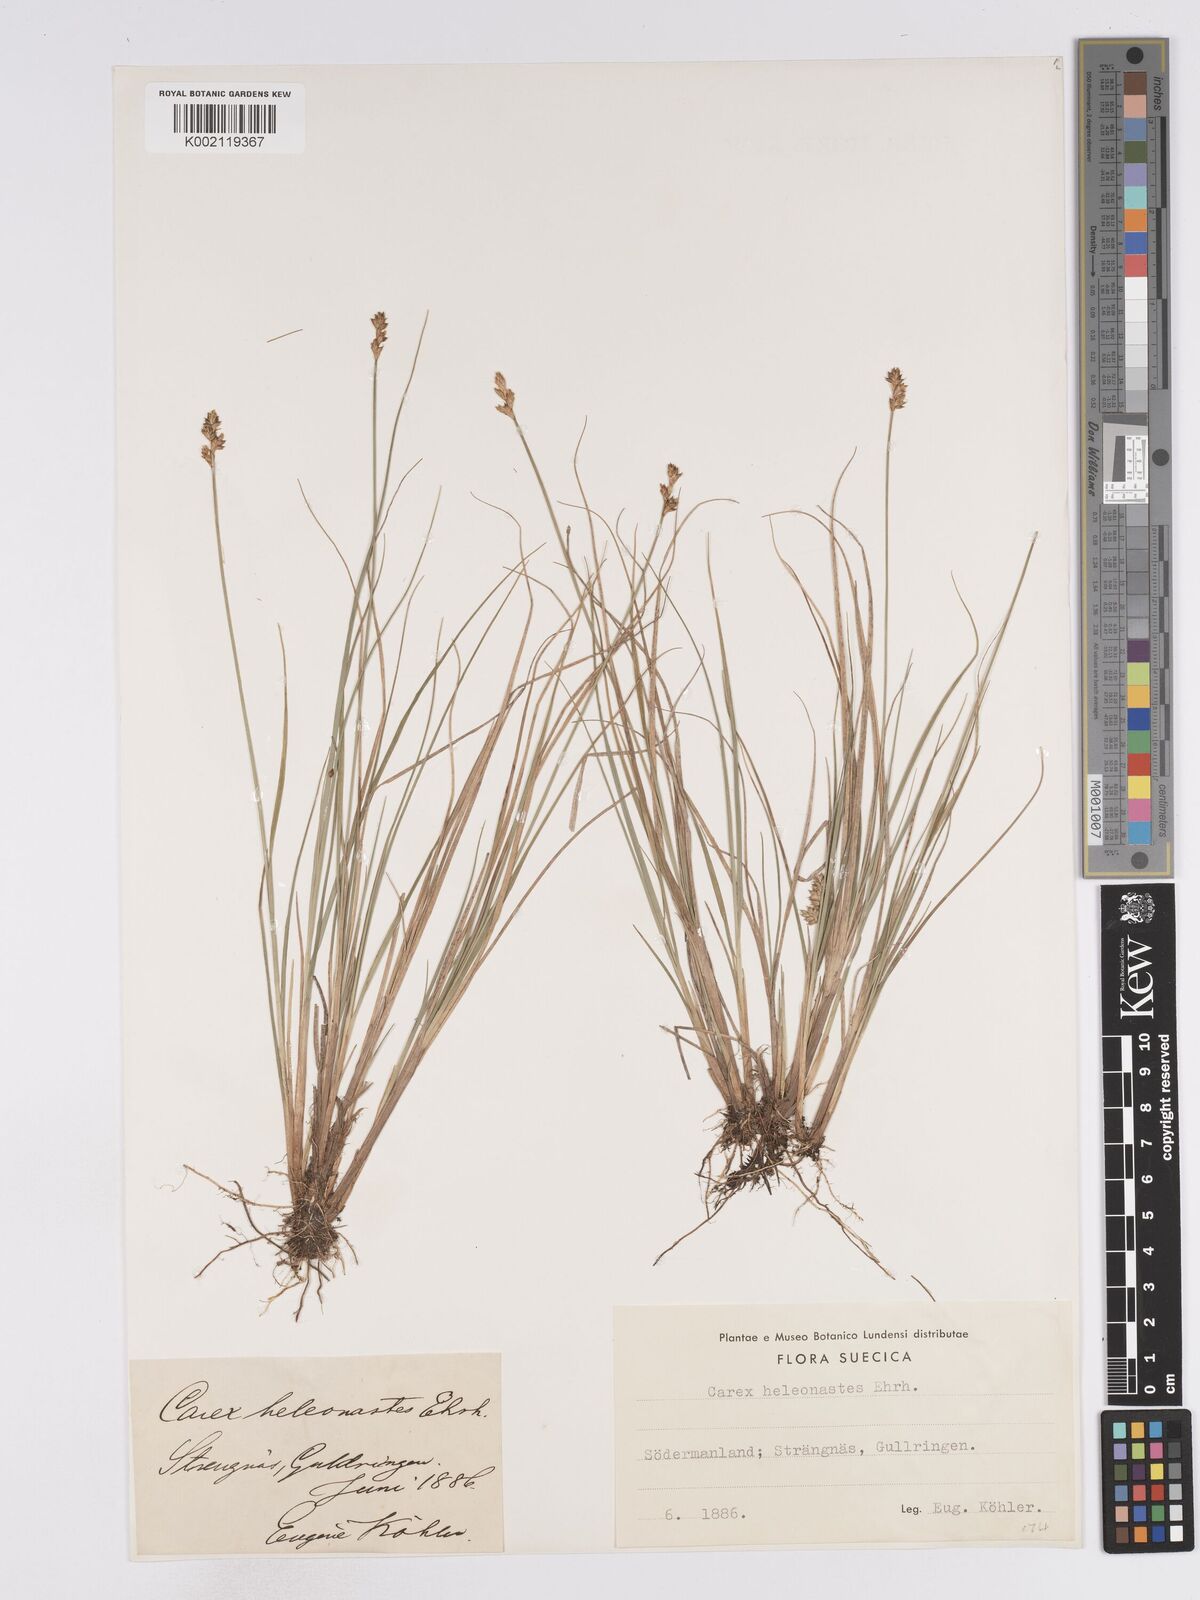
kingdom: Plantae
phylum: Tracheophyta
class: Liliopsida
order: Poales
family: Cyperaceae
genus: Carex
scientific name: Carex heleonastes
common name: Hudson bay sedge
